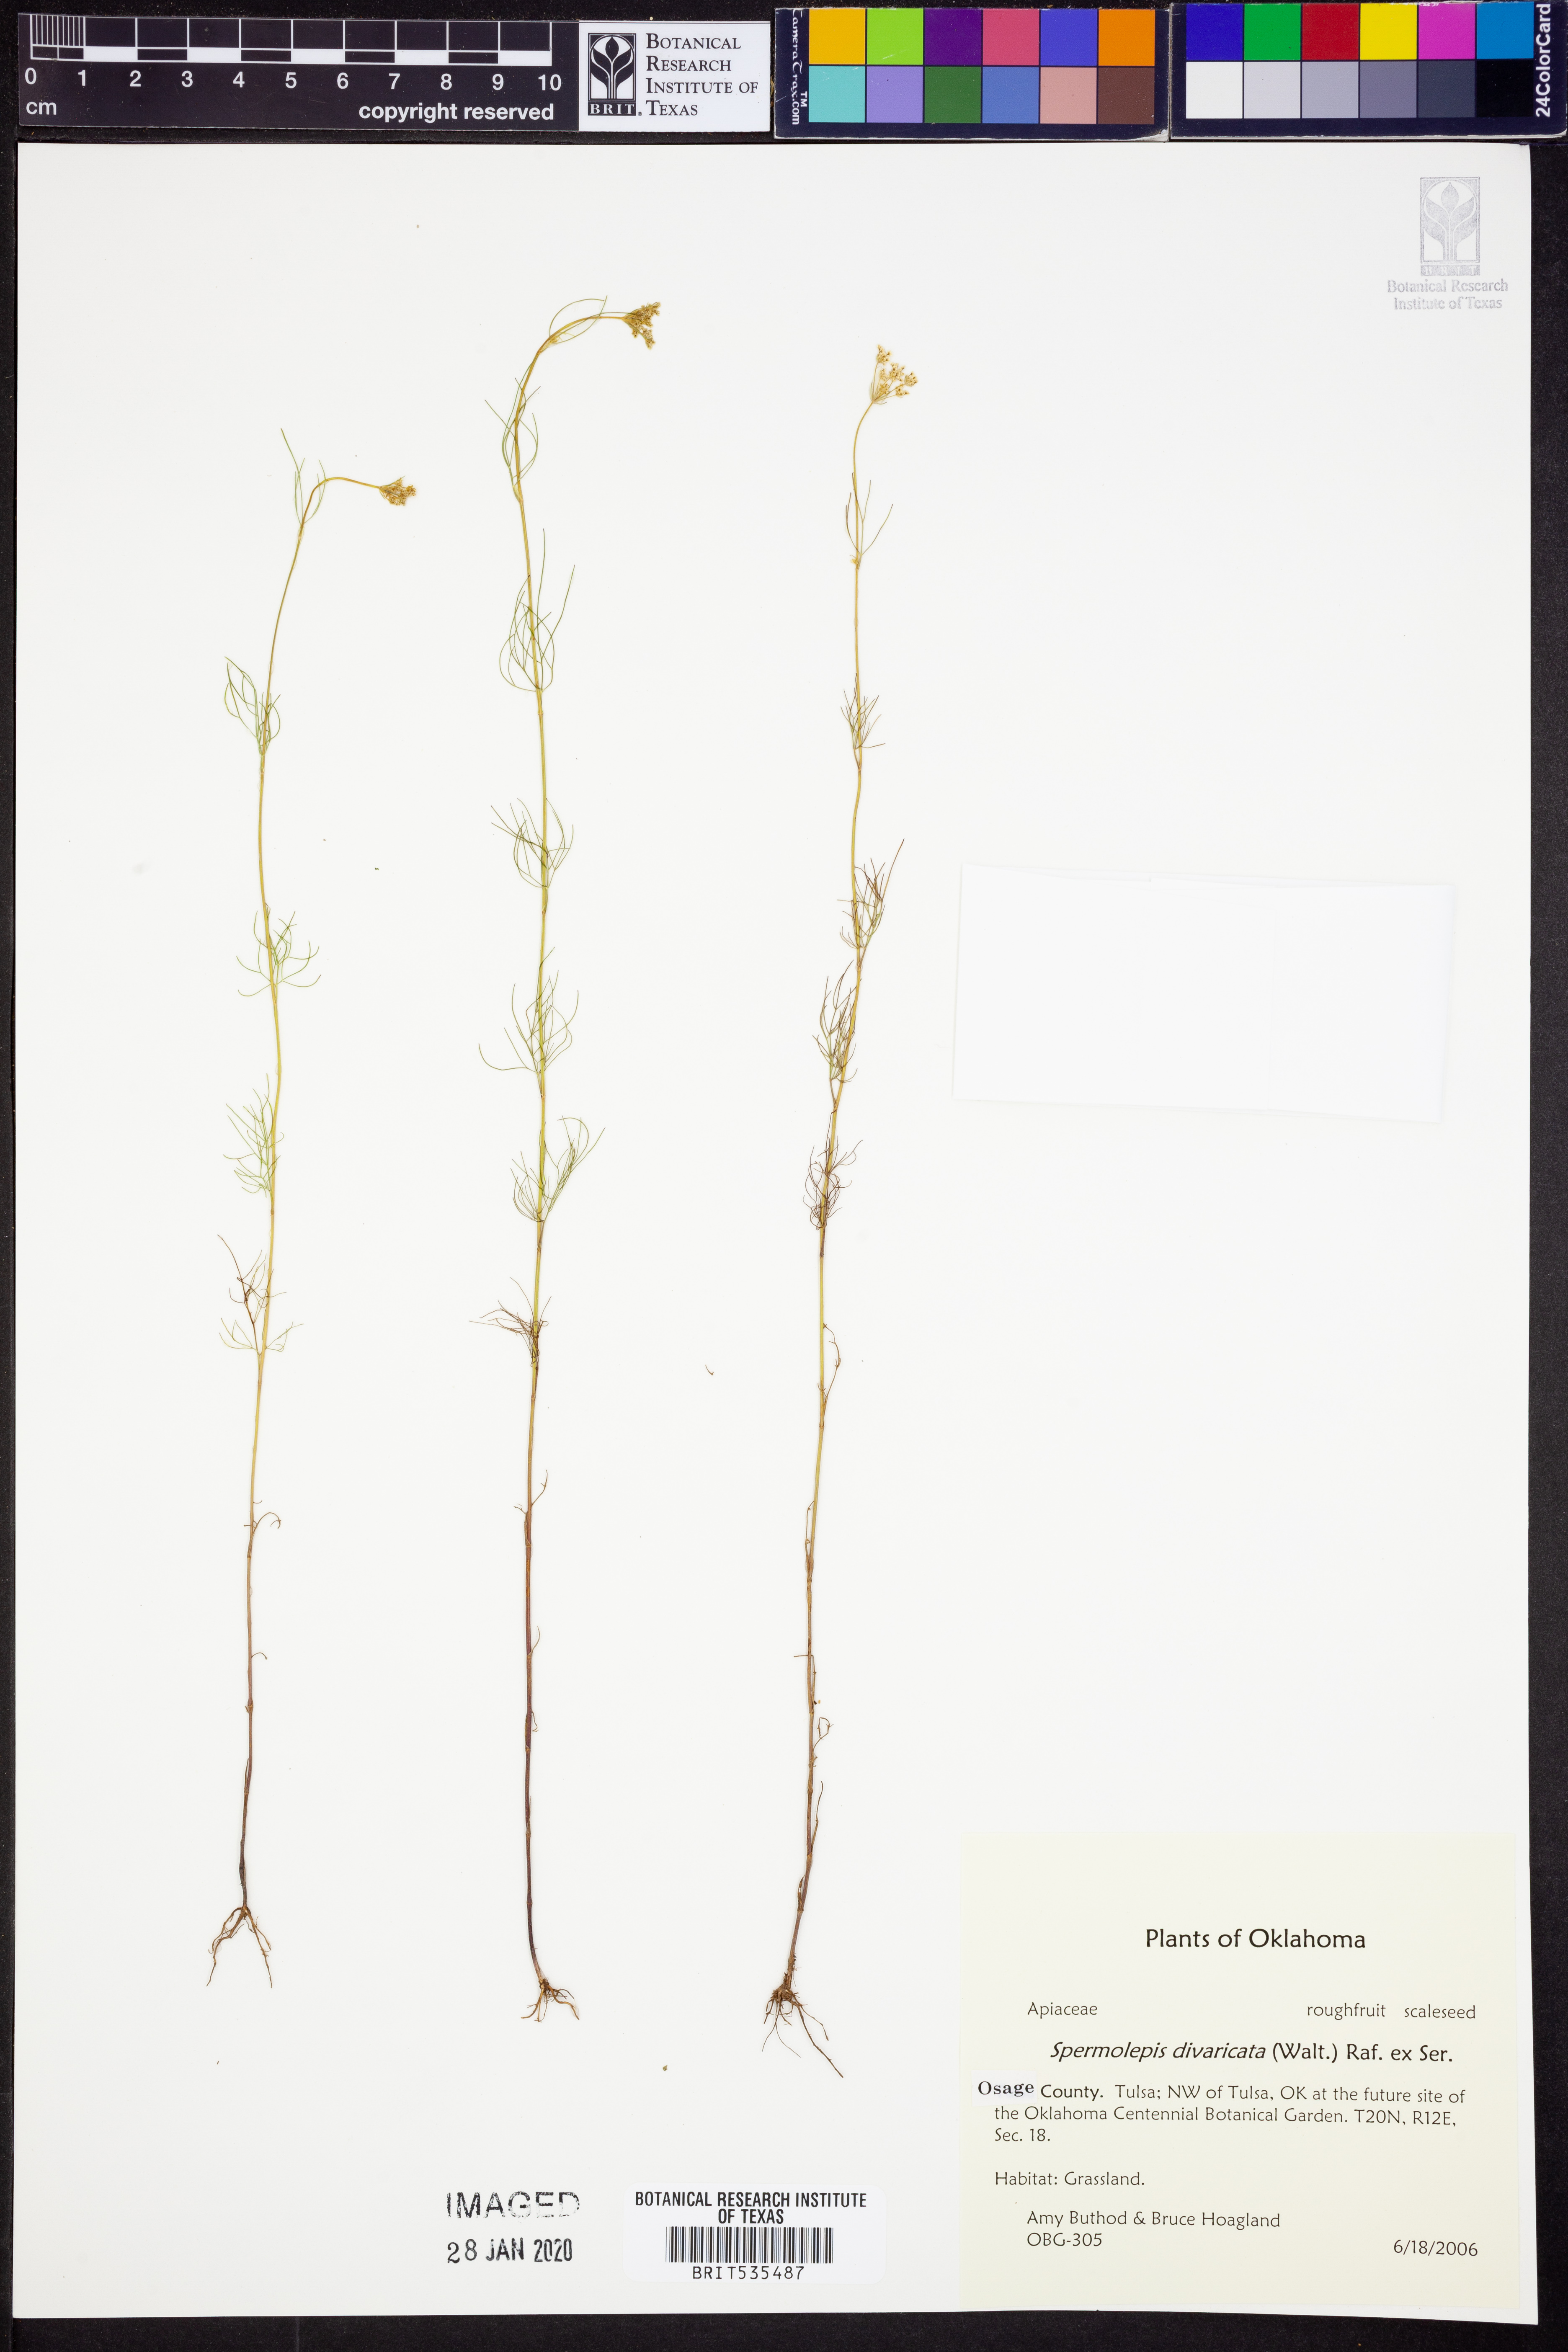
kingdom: Plantae
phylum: Tracheophyta
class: Magnoliopsida
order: Apiales
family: Apiaceae
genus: Spermolepis
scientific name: Spermolepis divaricata
